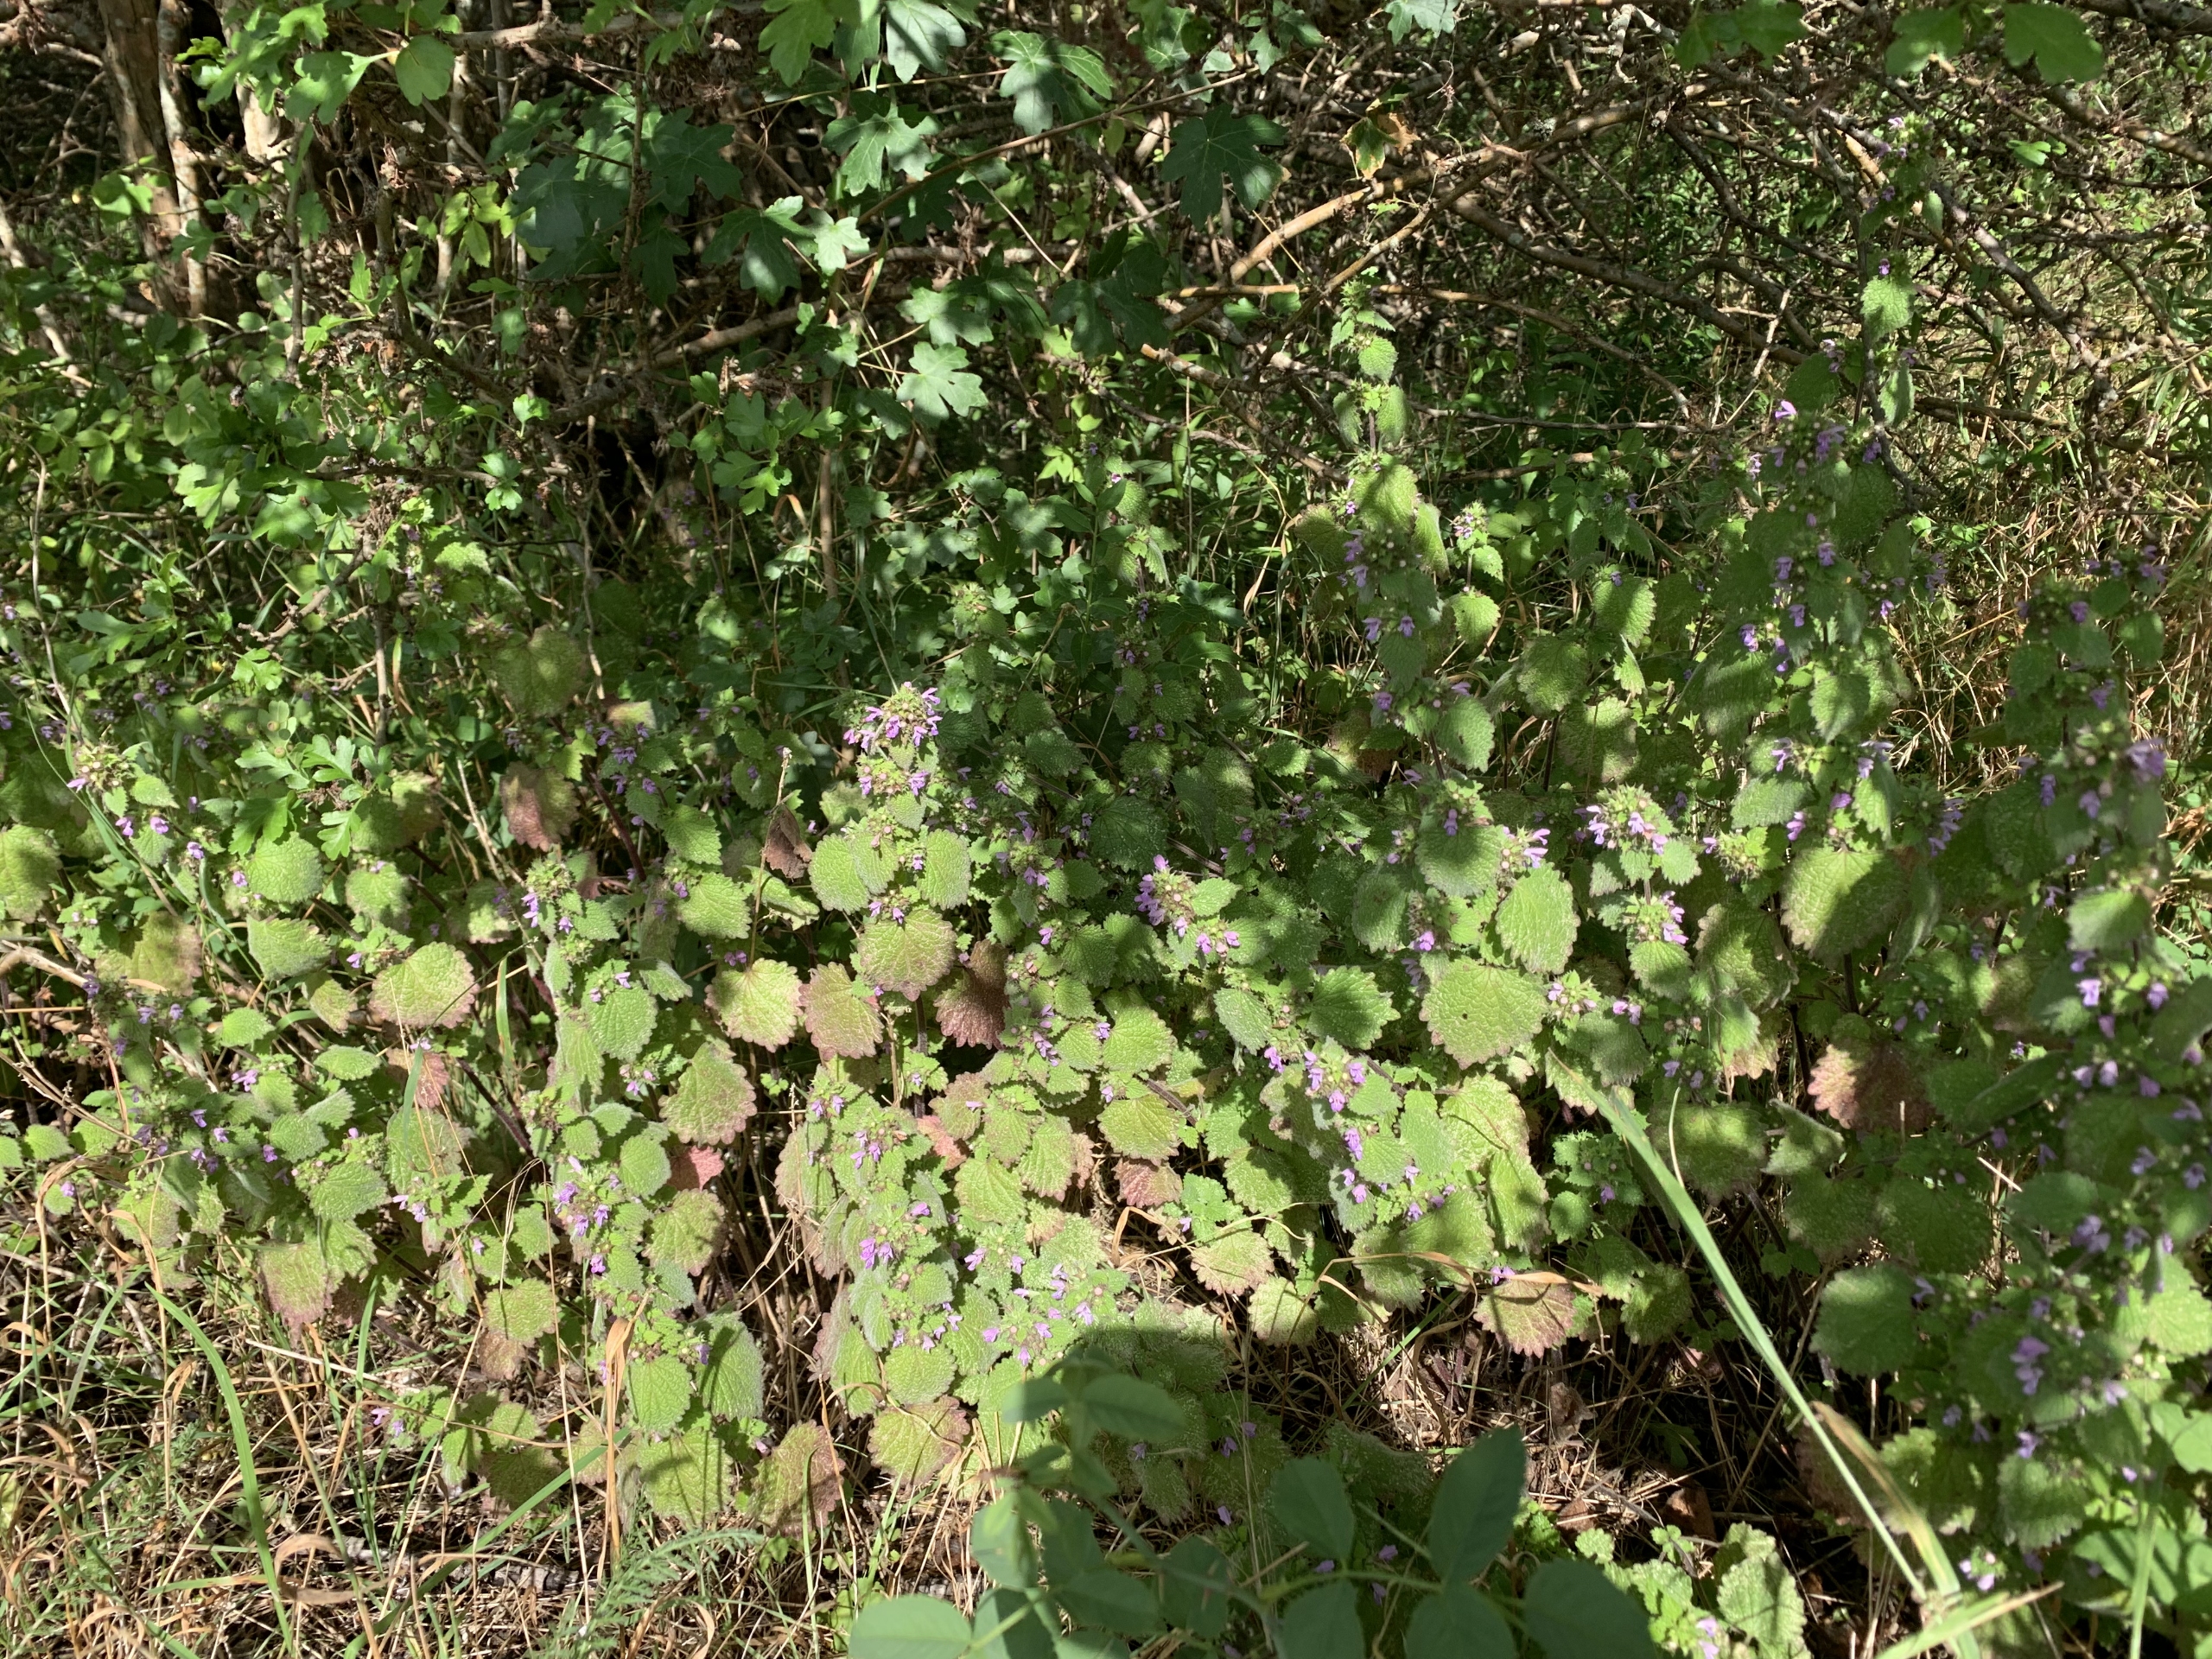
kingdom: Plantae
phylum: Tracheophyta
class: Magnoliopsida
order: Lamiales
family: Lamiaceae
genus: Ballota
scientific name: Ballota nigra
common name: Tandbæger
